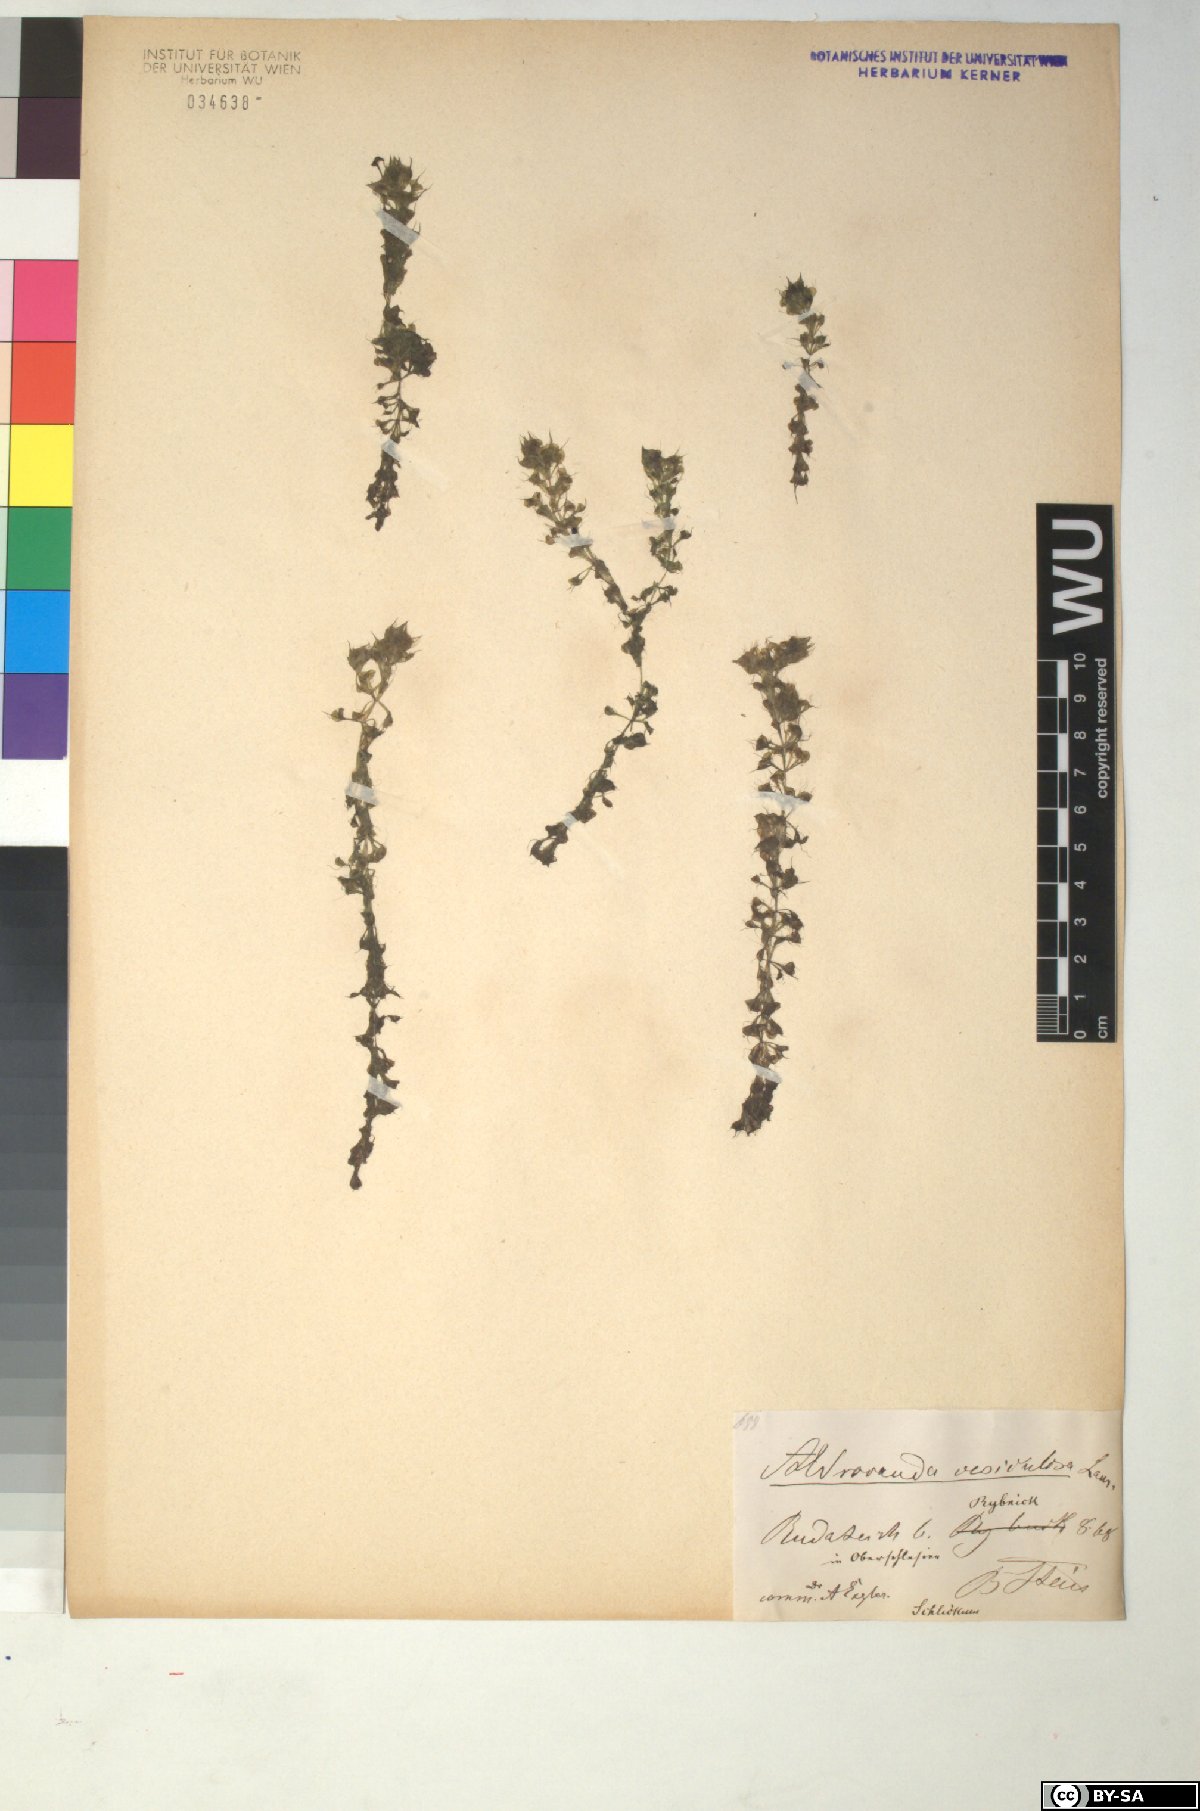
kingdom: Plantae
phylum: Tracheophyta
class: Magnoliopsida
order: Caryophyllales
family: Droseraceae
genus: Aldrovanda
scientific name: Aldrovanda vesiculosa
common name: Waterwheel plant
